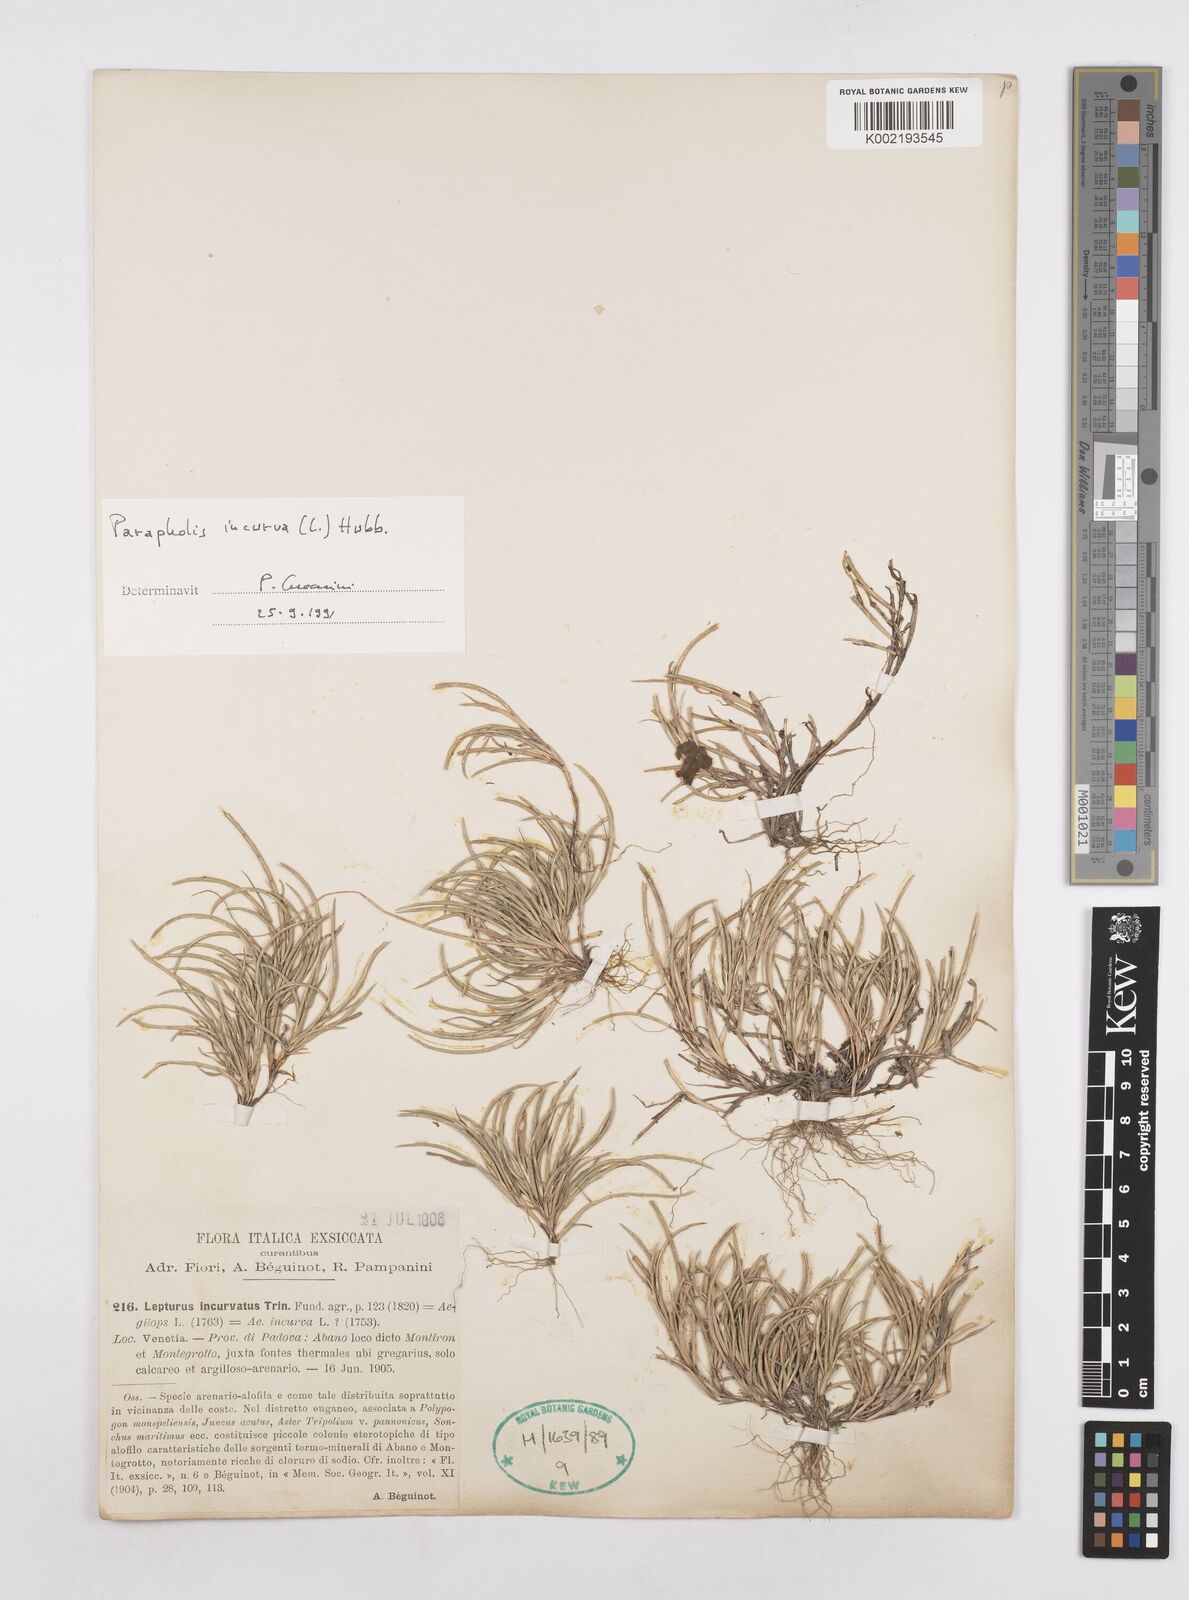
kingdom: Plantae
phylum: Tracheophyta
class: Liliopsida
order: Poales
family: Poaceae
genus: Parapholis
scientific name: Parapholis incurva
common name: Curved sicklegrass
